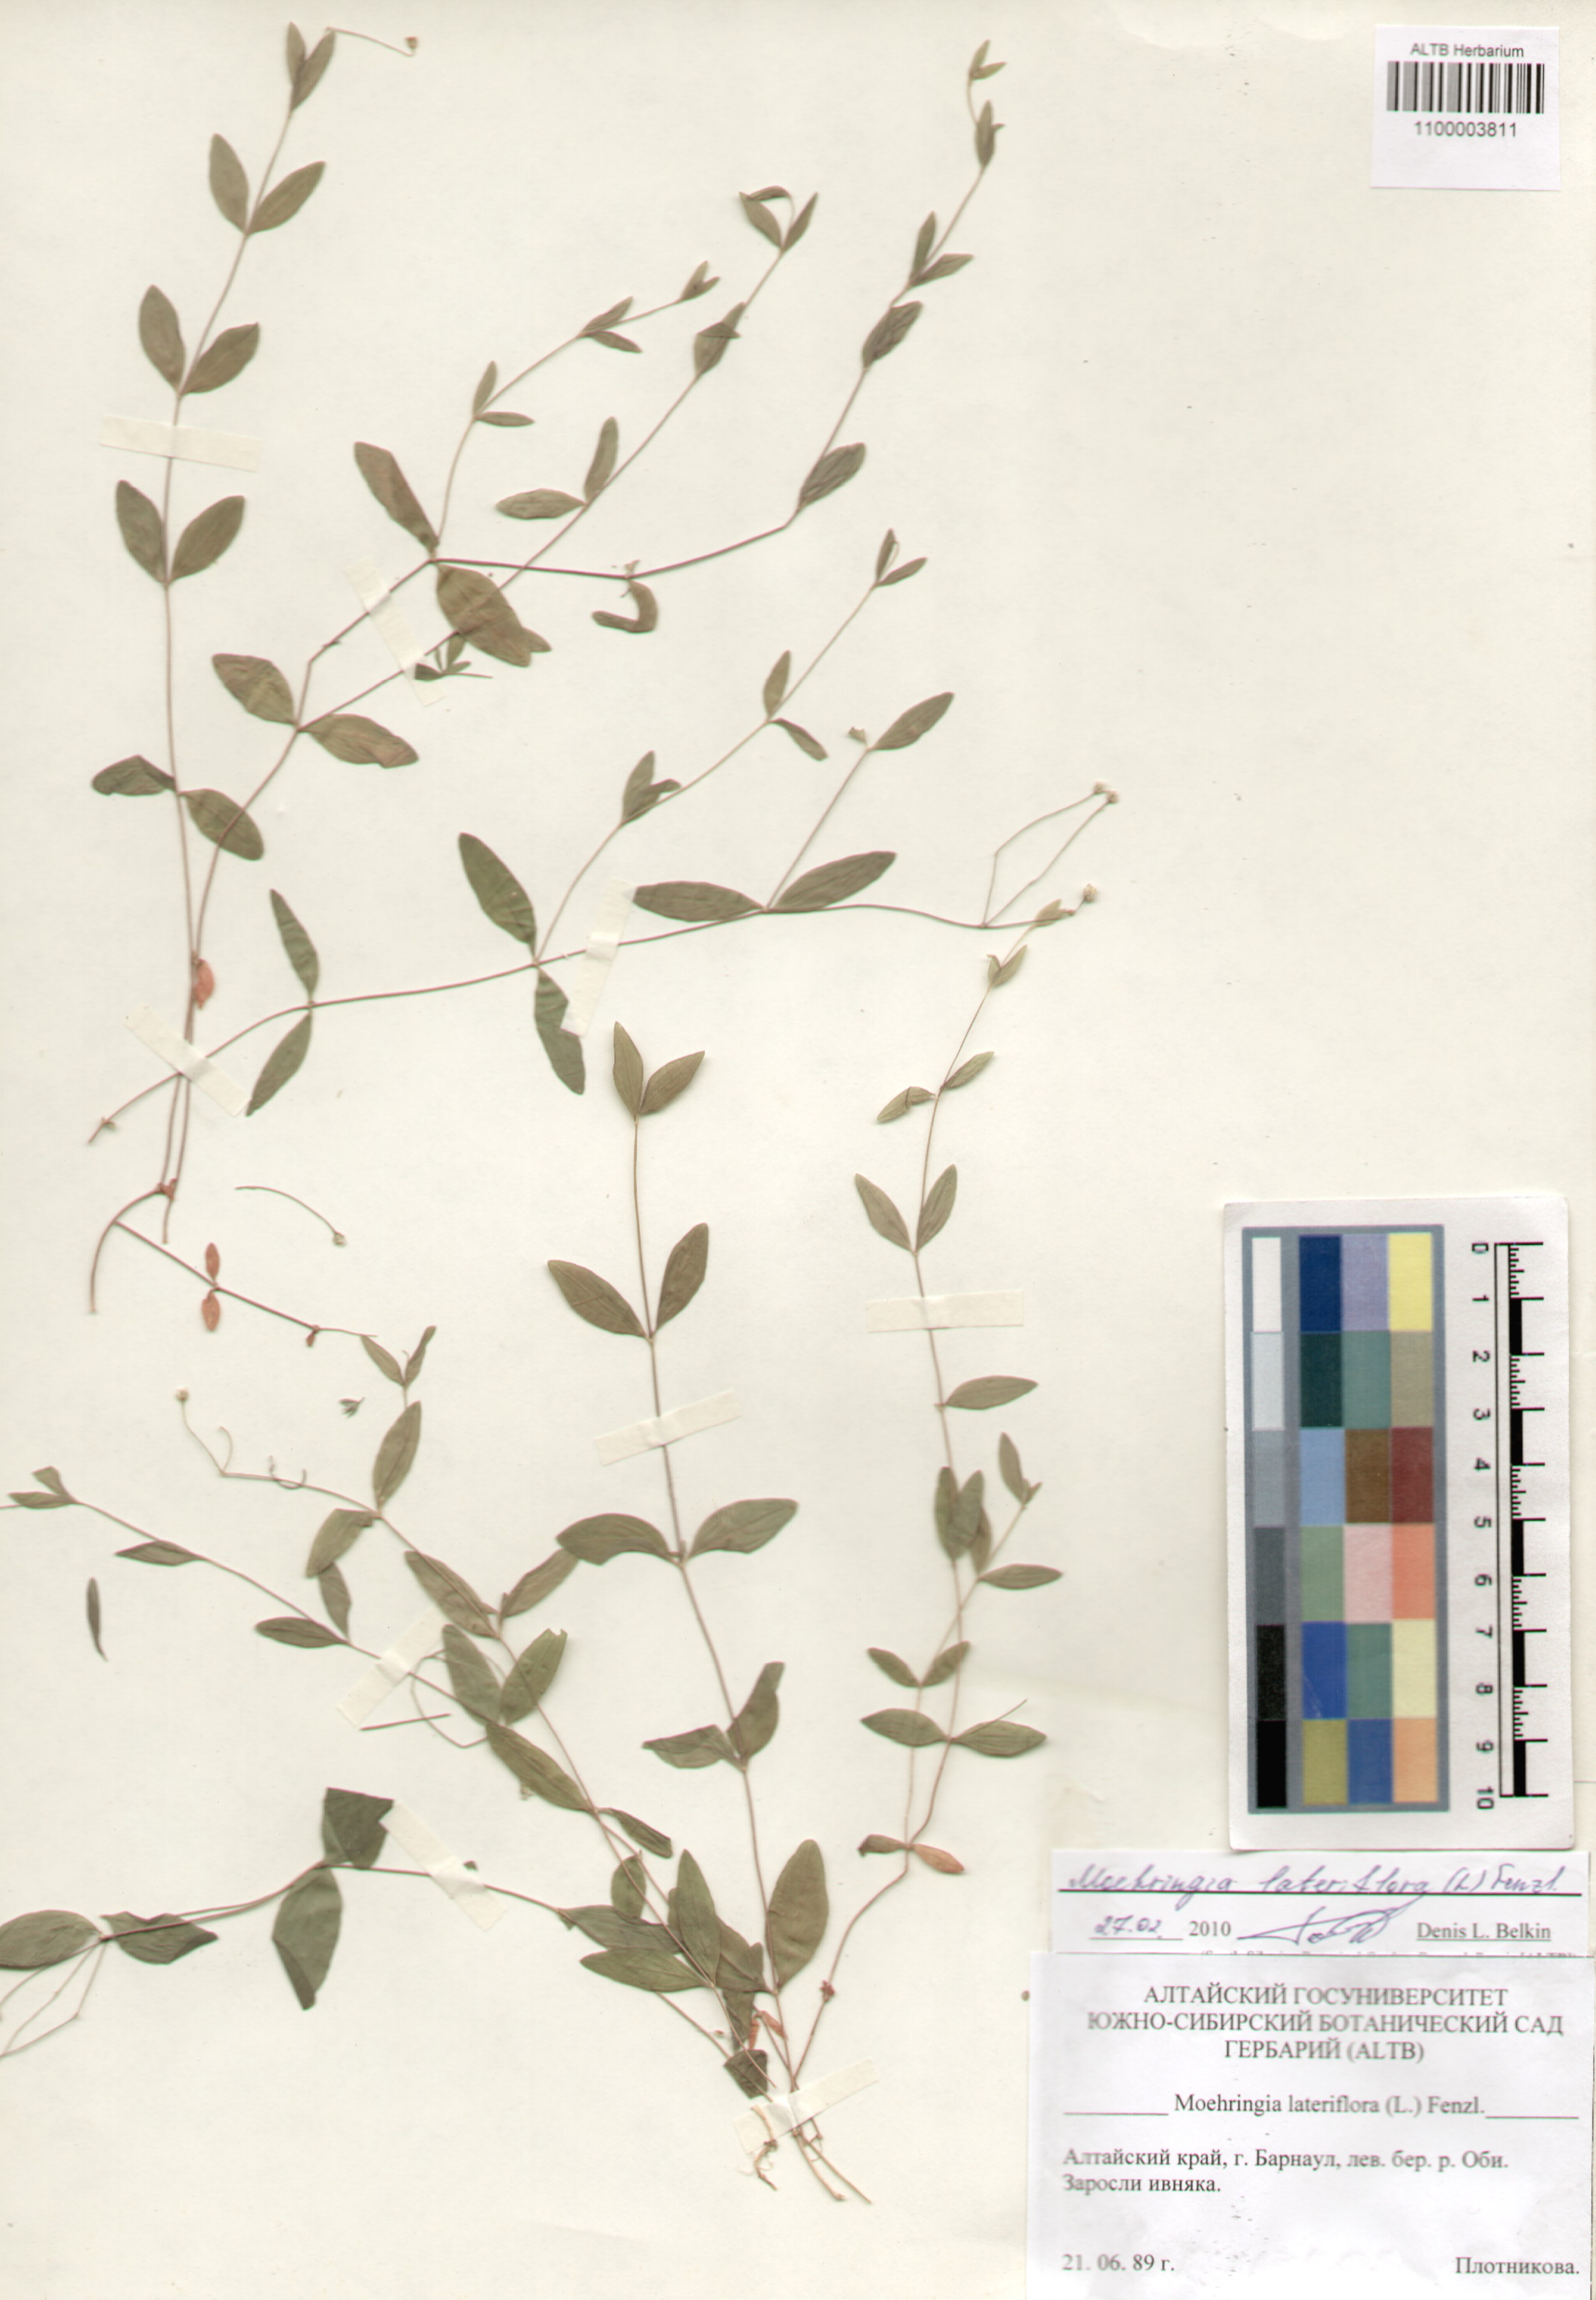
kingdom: Plantae
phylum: Tracheophyta
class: Magnoliopsida
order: Caryophyllales
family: Caryophyllaceae
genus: Moehringia
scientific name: Moehringia lateriflora
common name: Blunt-leaved sandwort
